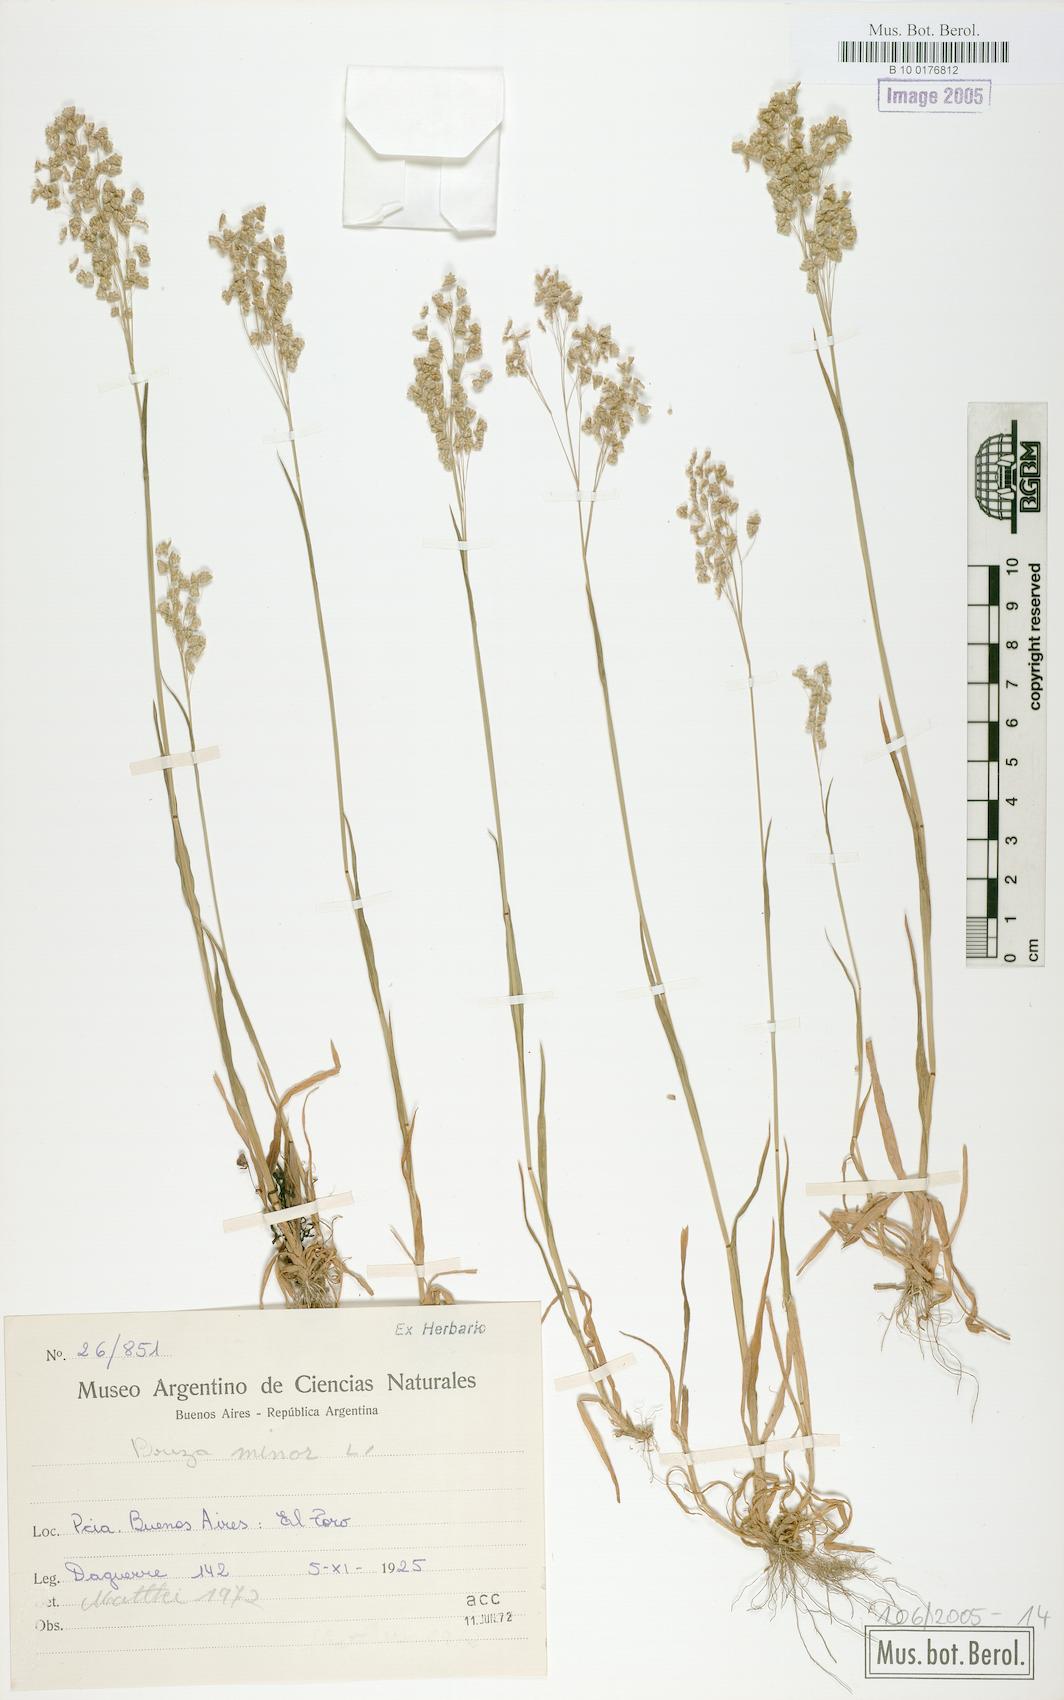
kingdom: Plantae
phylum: Tracheophyta
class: Liliopsida
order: Poales
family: Poaceae
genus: Briza
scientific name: Briza minor
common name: Lesser quaking-grass
